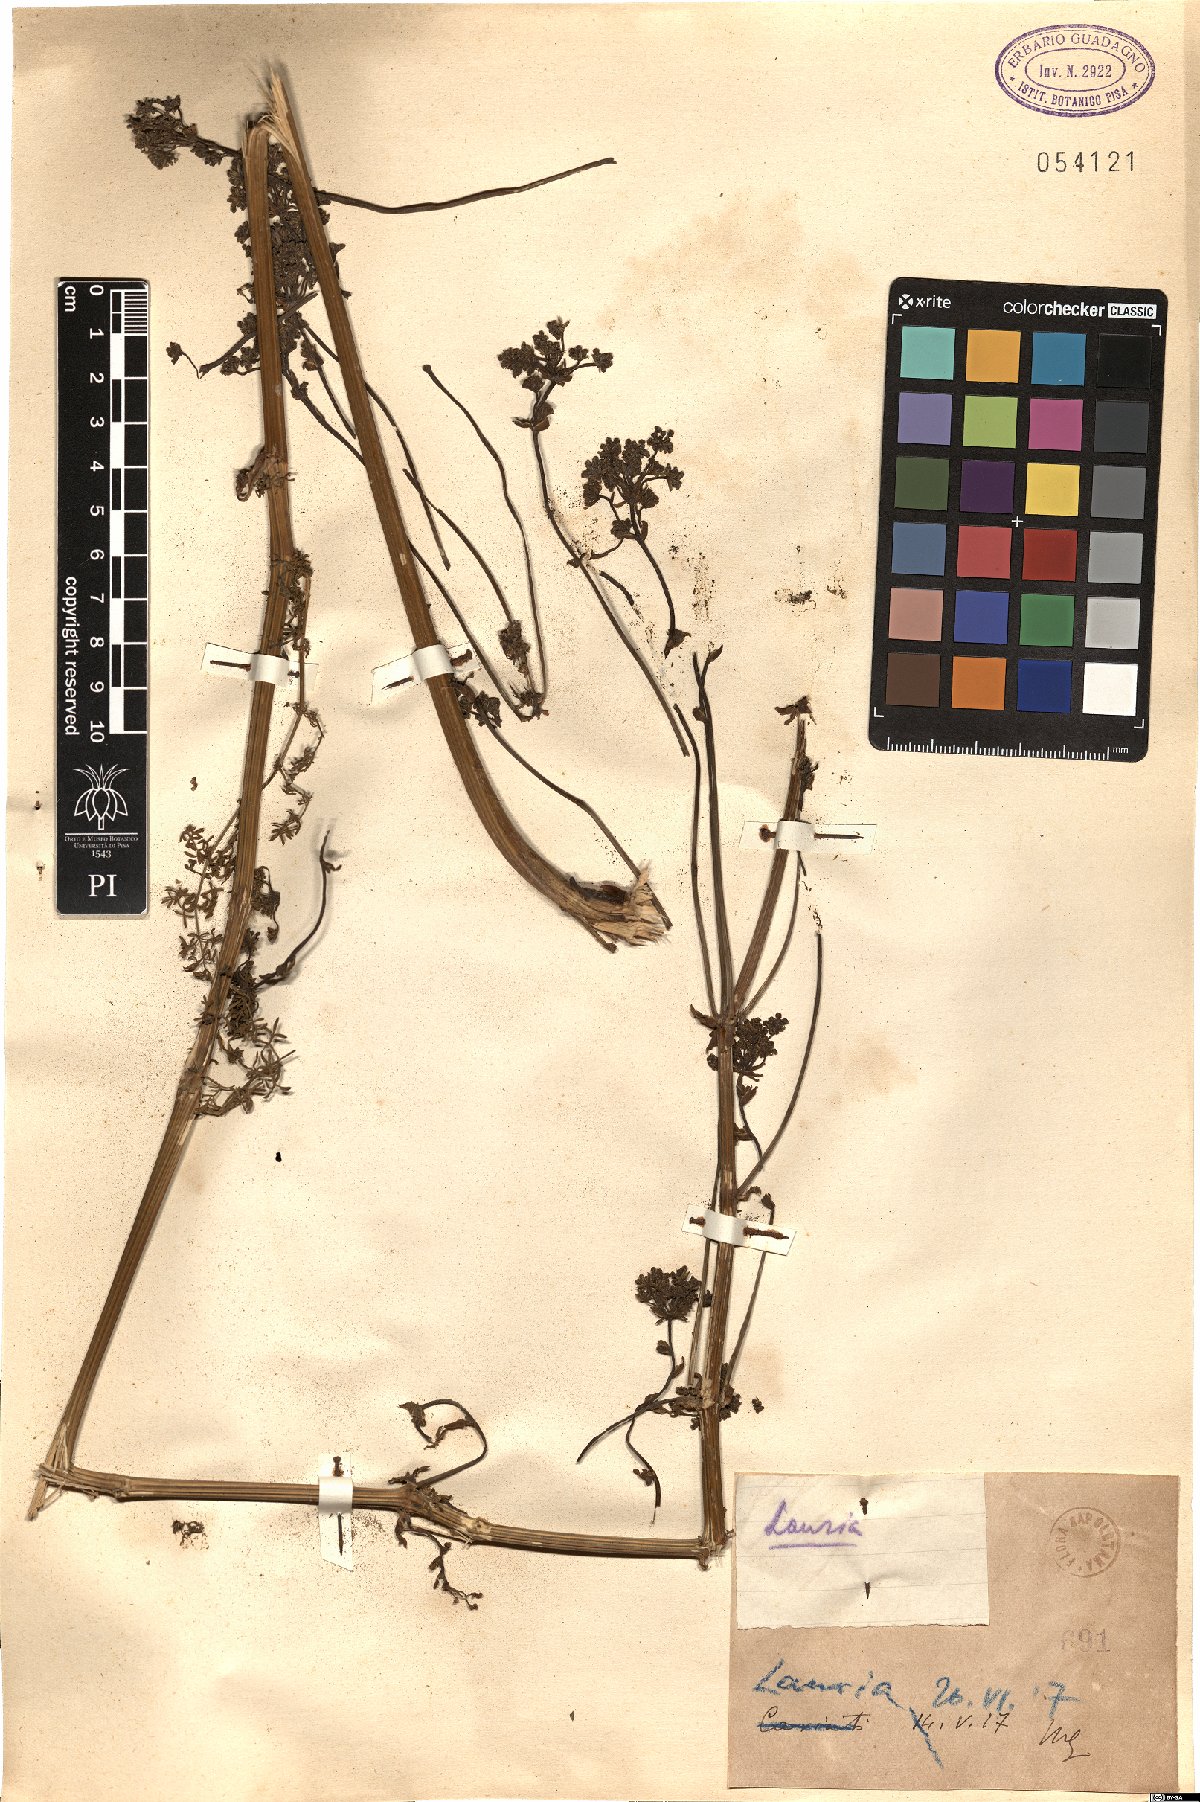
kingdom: Plantae
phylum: Tracheophyta
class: Magnoliopsida
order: Apiales
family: Apiaceae
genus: Ferula
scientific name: Ferula
